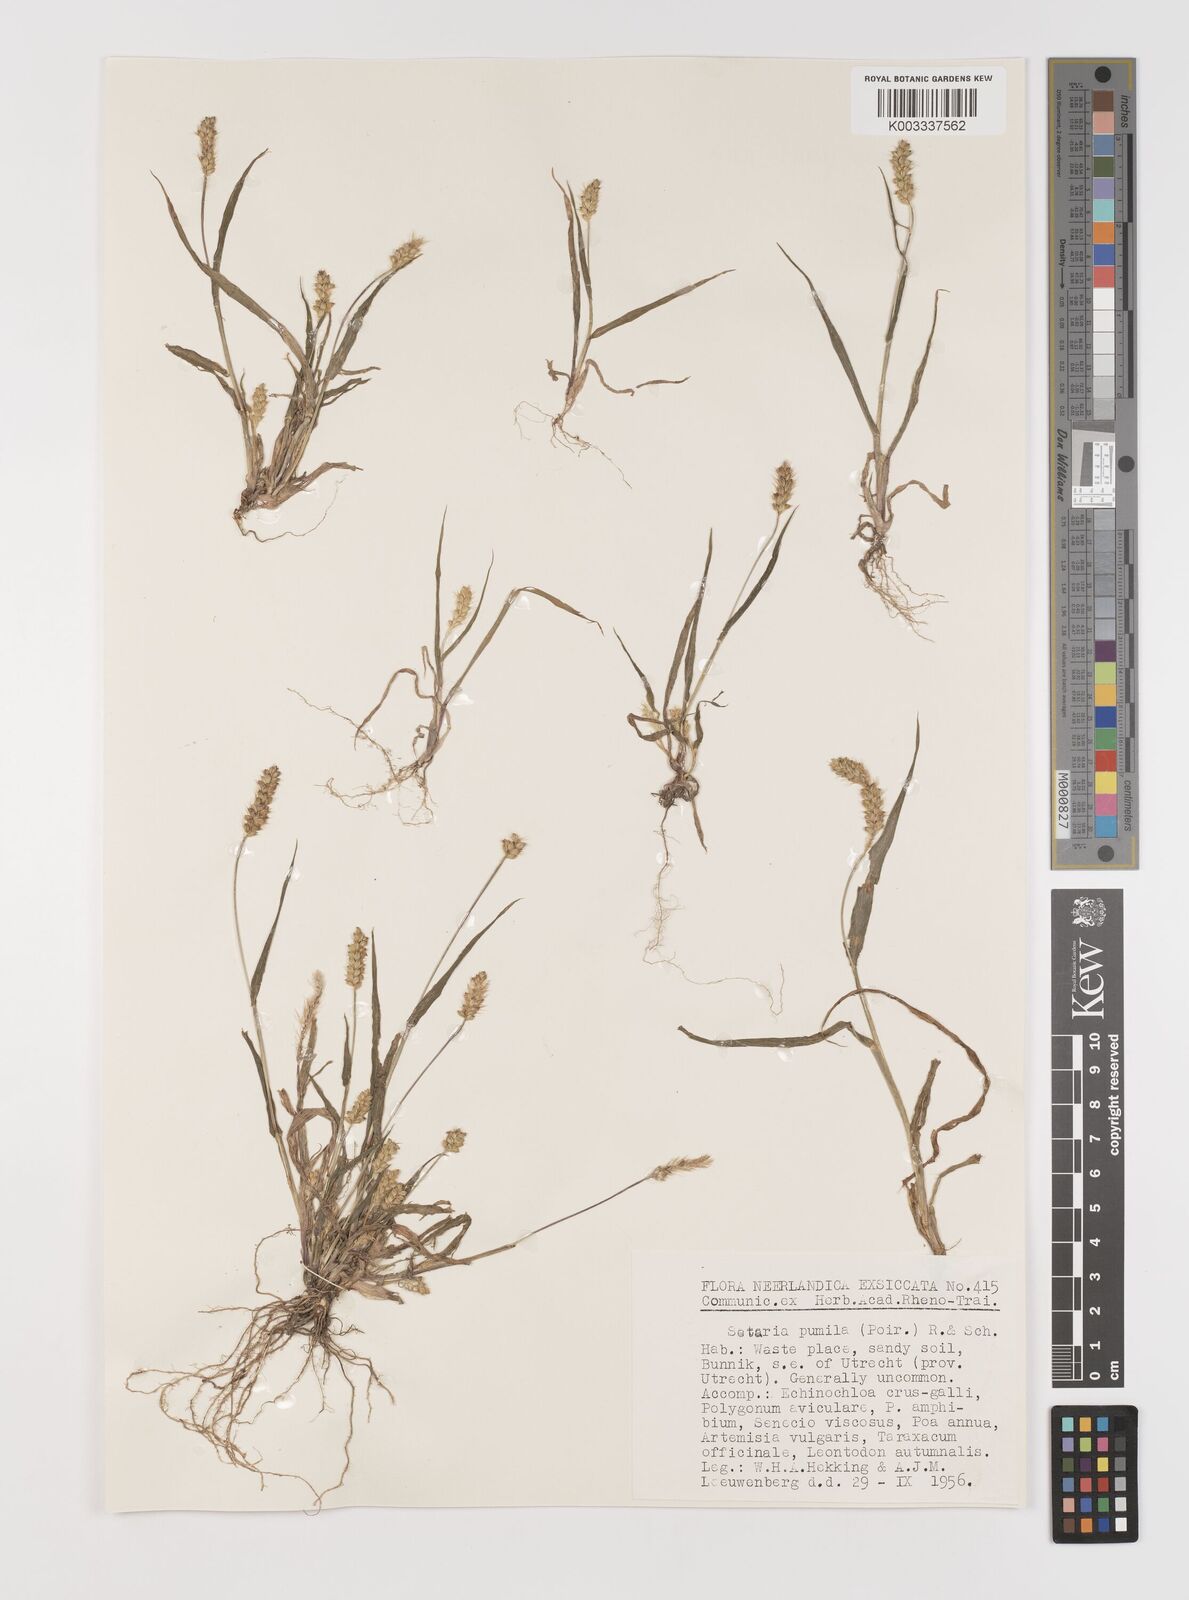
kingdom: Plantae
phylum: Tracheophyta
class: Liliopsida
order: Poales
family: Poaceae
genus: Setaria
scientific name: Setaria pumila
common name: Yellow bristle-grass
